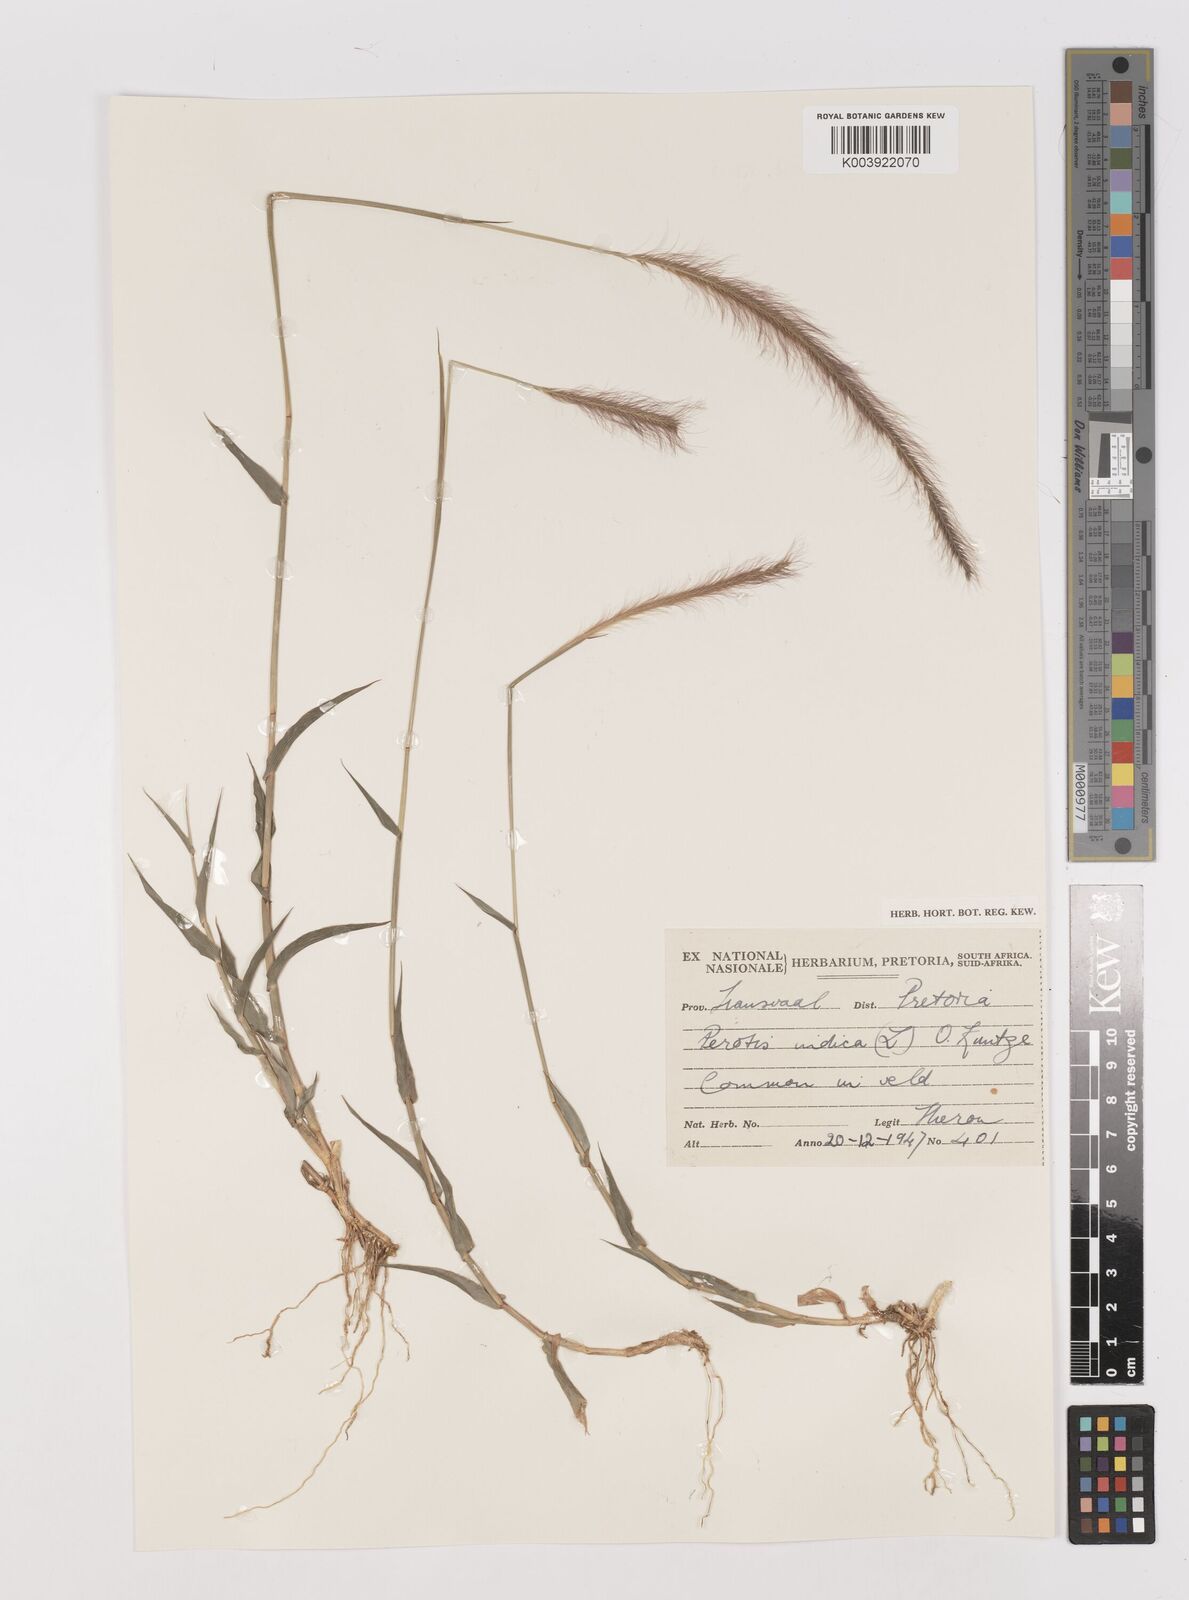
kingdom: Plantae
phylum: Tracheophyta
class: Liliopsida
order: Poales
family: Poaceae
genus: Perotis
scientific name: Perotis patens
